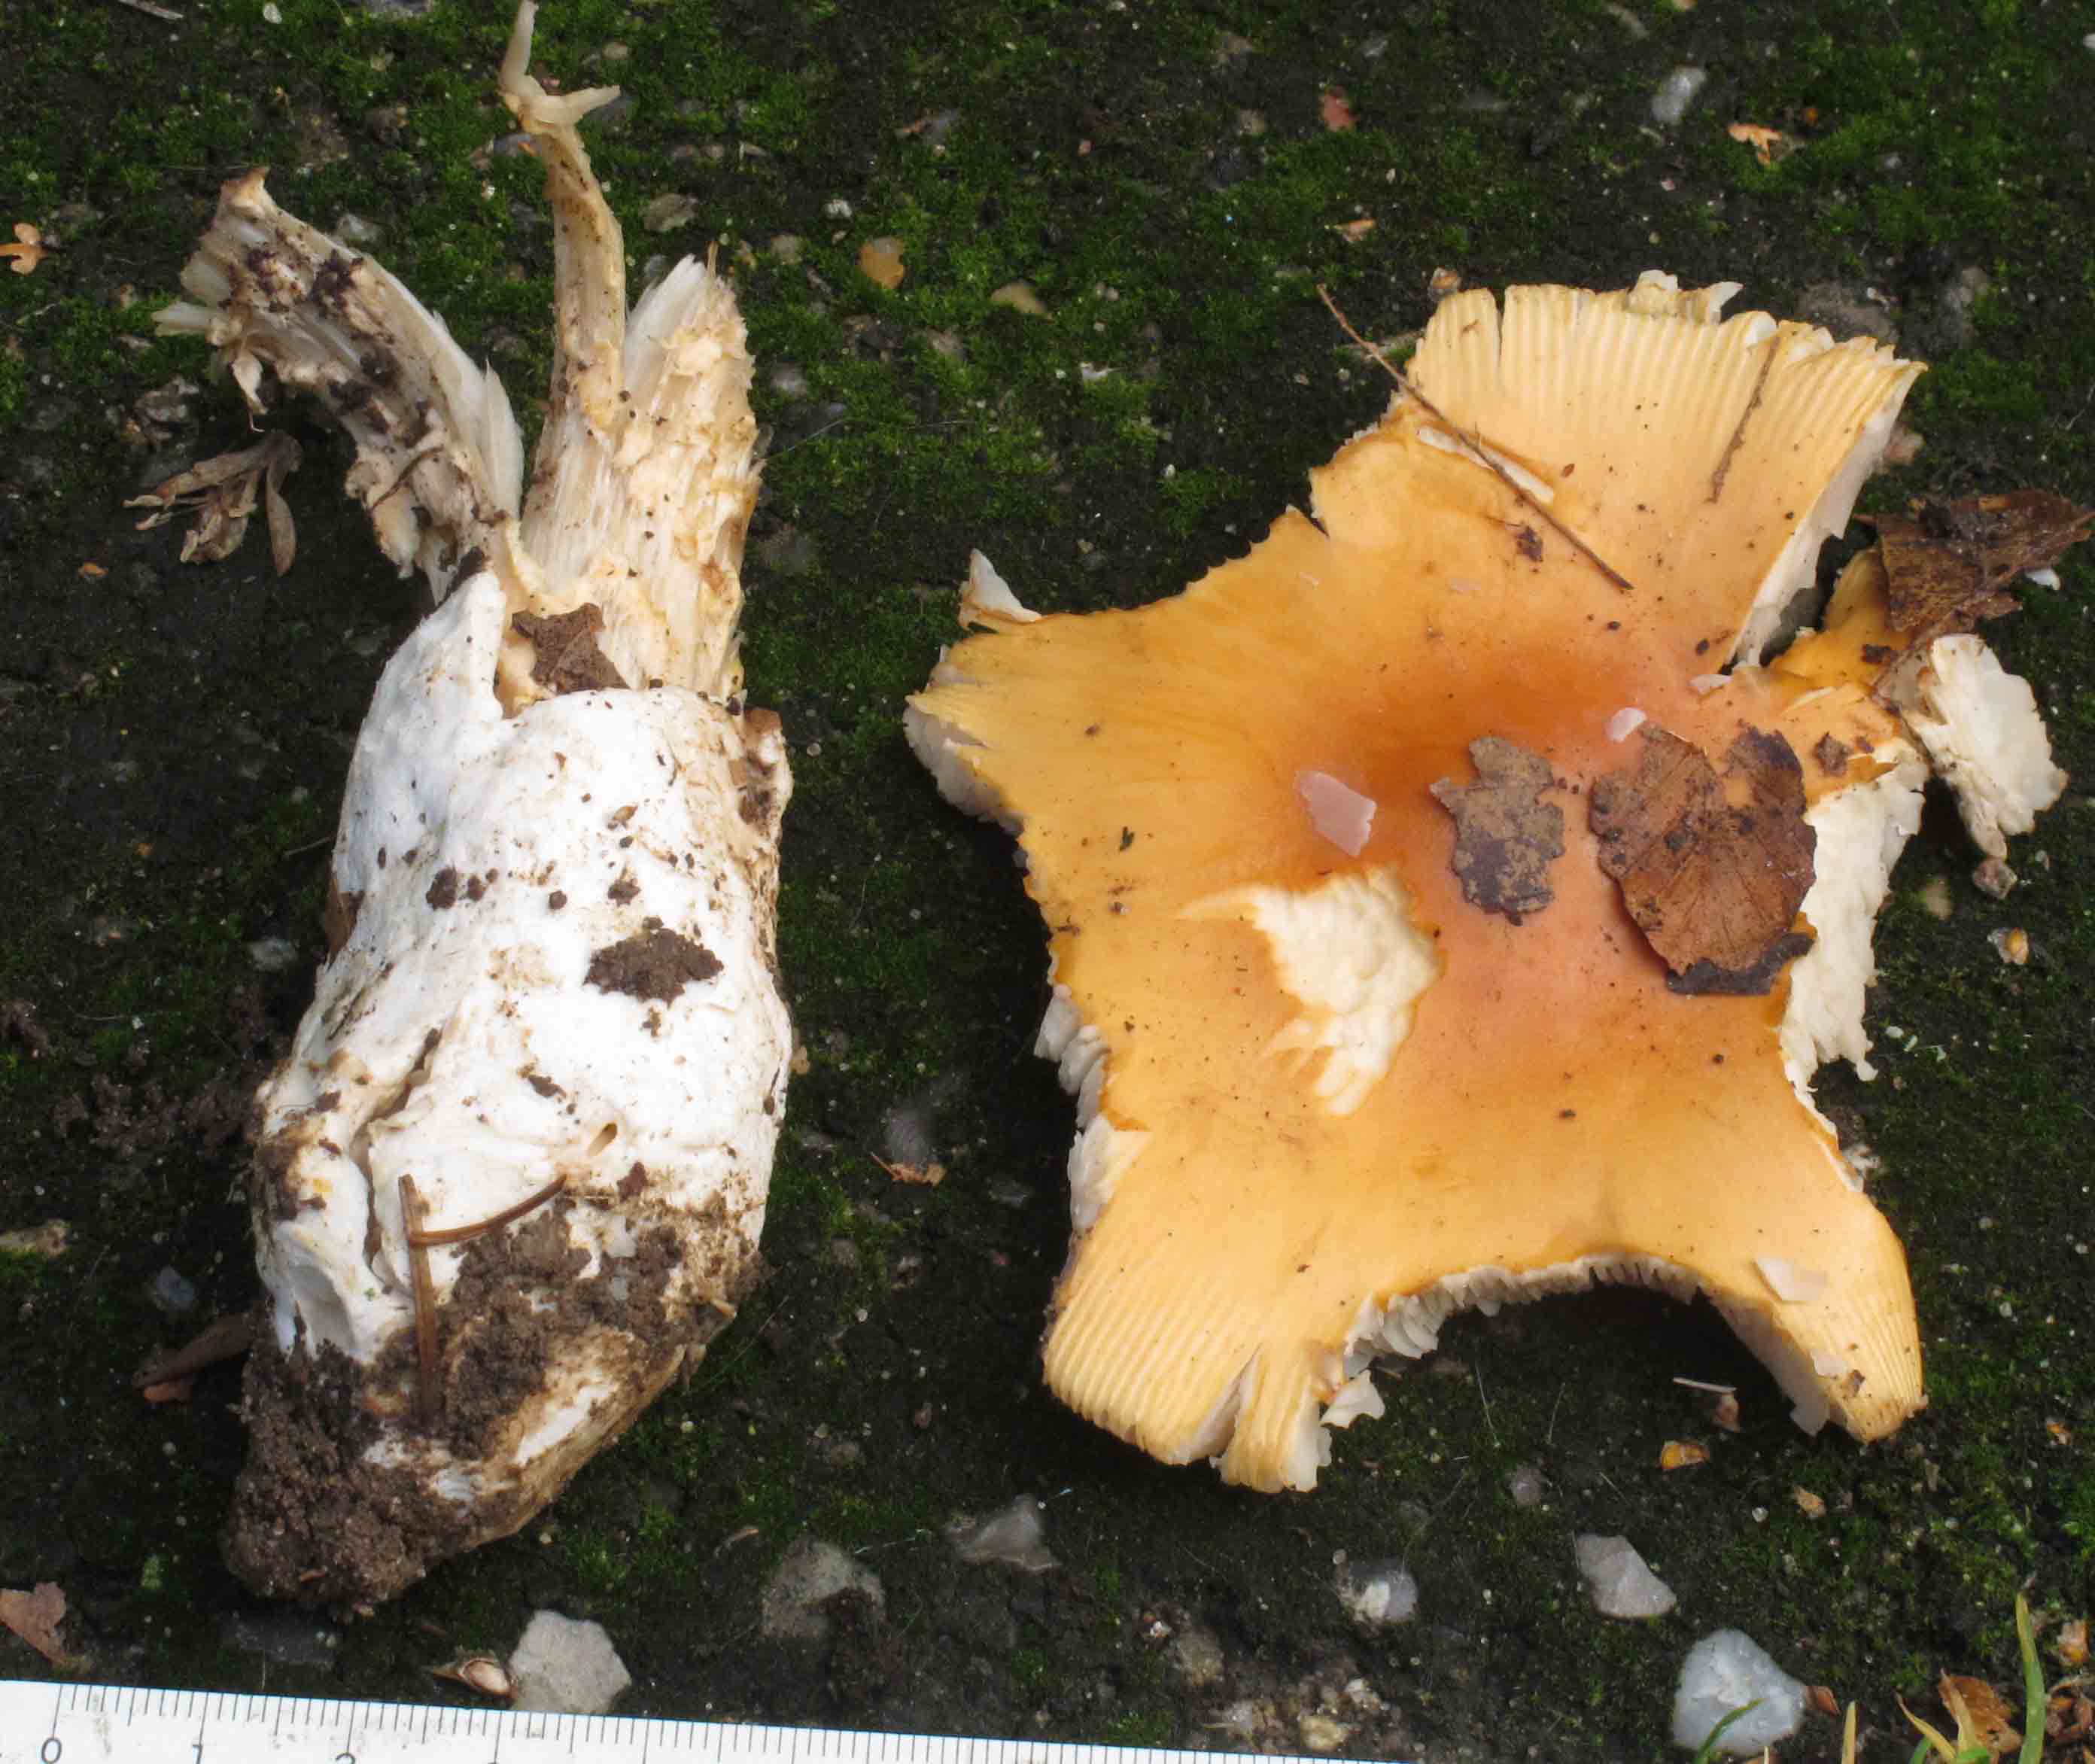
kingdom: Fungi
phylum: Basidiomycota
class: Agaricomycetes
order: Agaricales
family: Amanitaceae
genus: Amanita
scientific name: Amanita crocea
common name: gylden kam-fluesvamp
